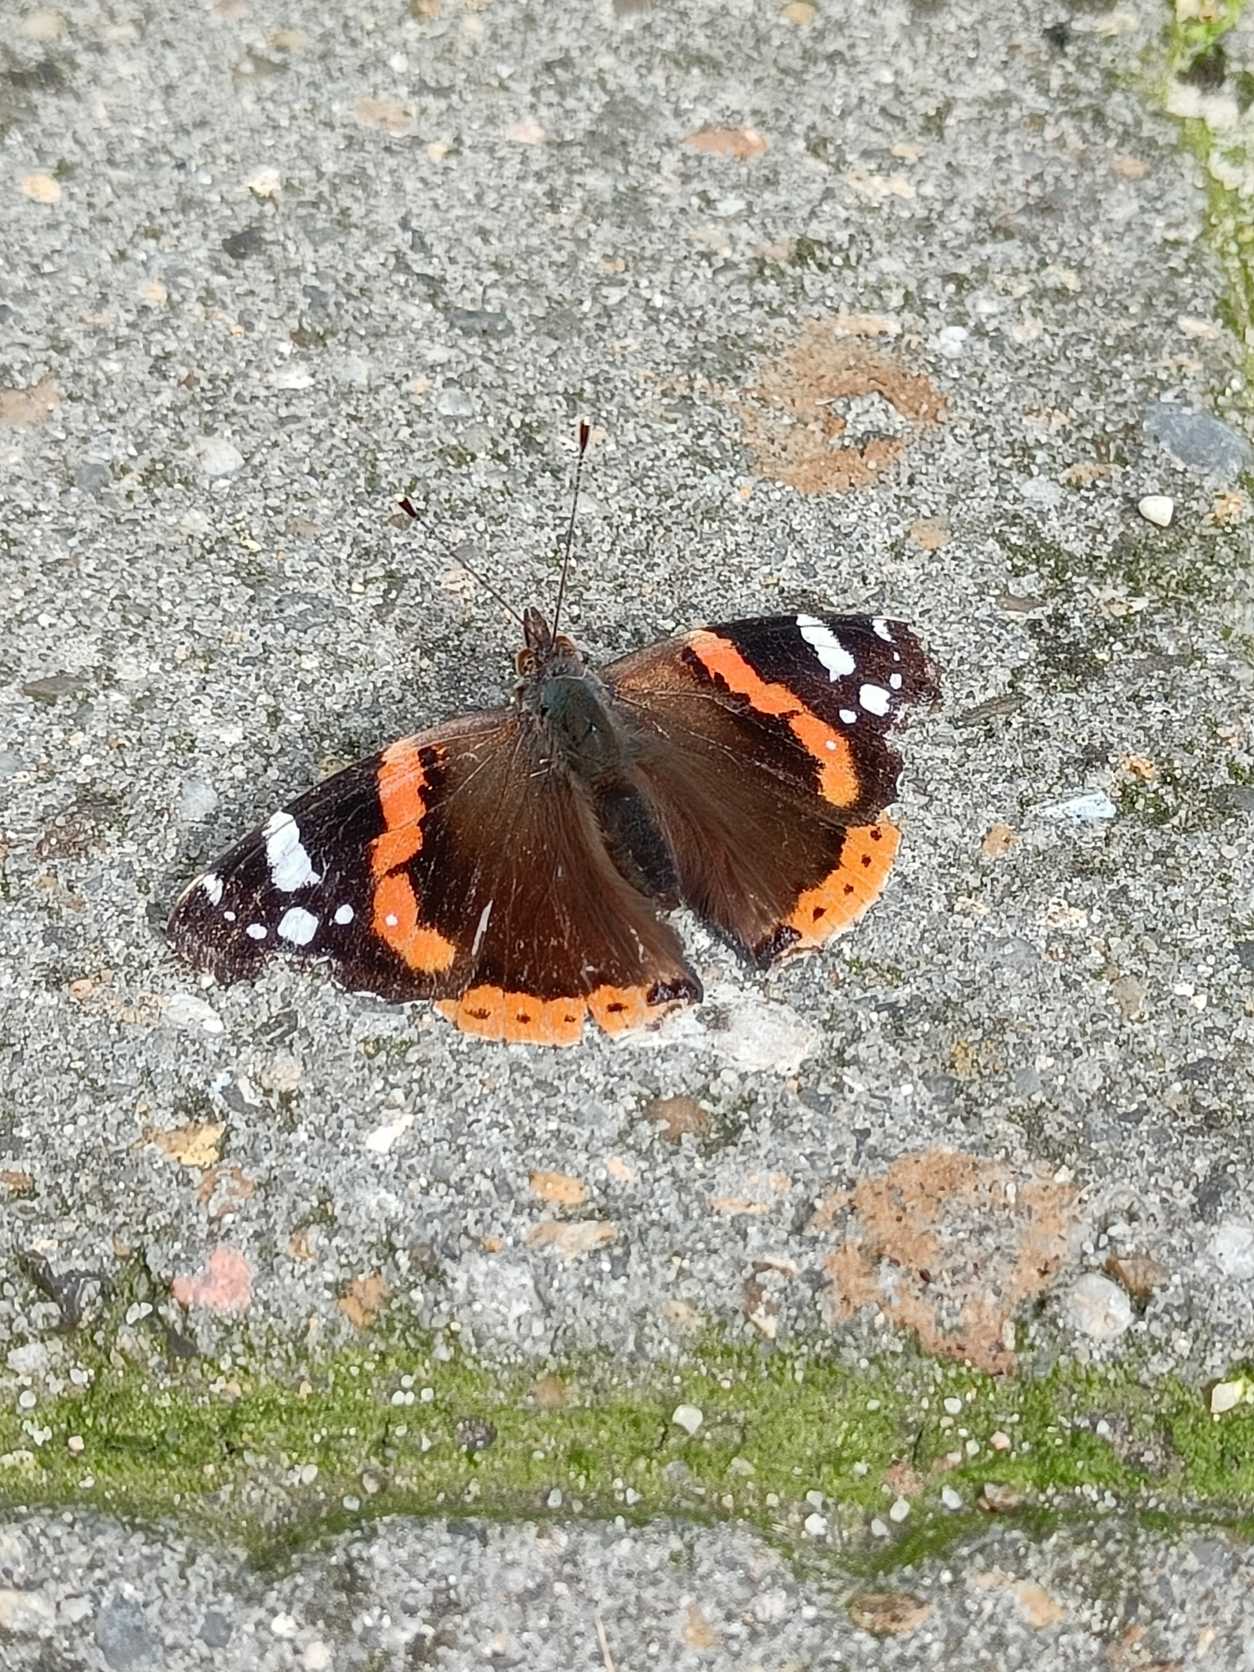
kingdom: Animalia
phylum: Arthropoda
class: Insecta
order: Lepidoptera
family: Nymphalidae
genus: Vanessa
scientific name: Vanessa atalanta
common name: Admiral
